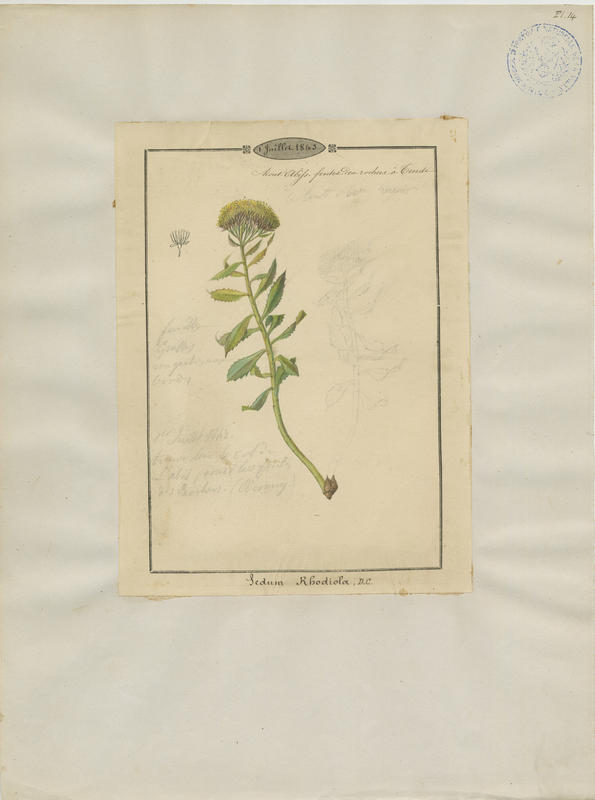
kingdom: Plantae
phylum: Tracheophyta
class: Magnoliopsida
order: Saxifragales
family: Crassulaceae
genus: Rhodiola
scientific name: Rhodiola rosea
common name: Roseroot
